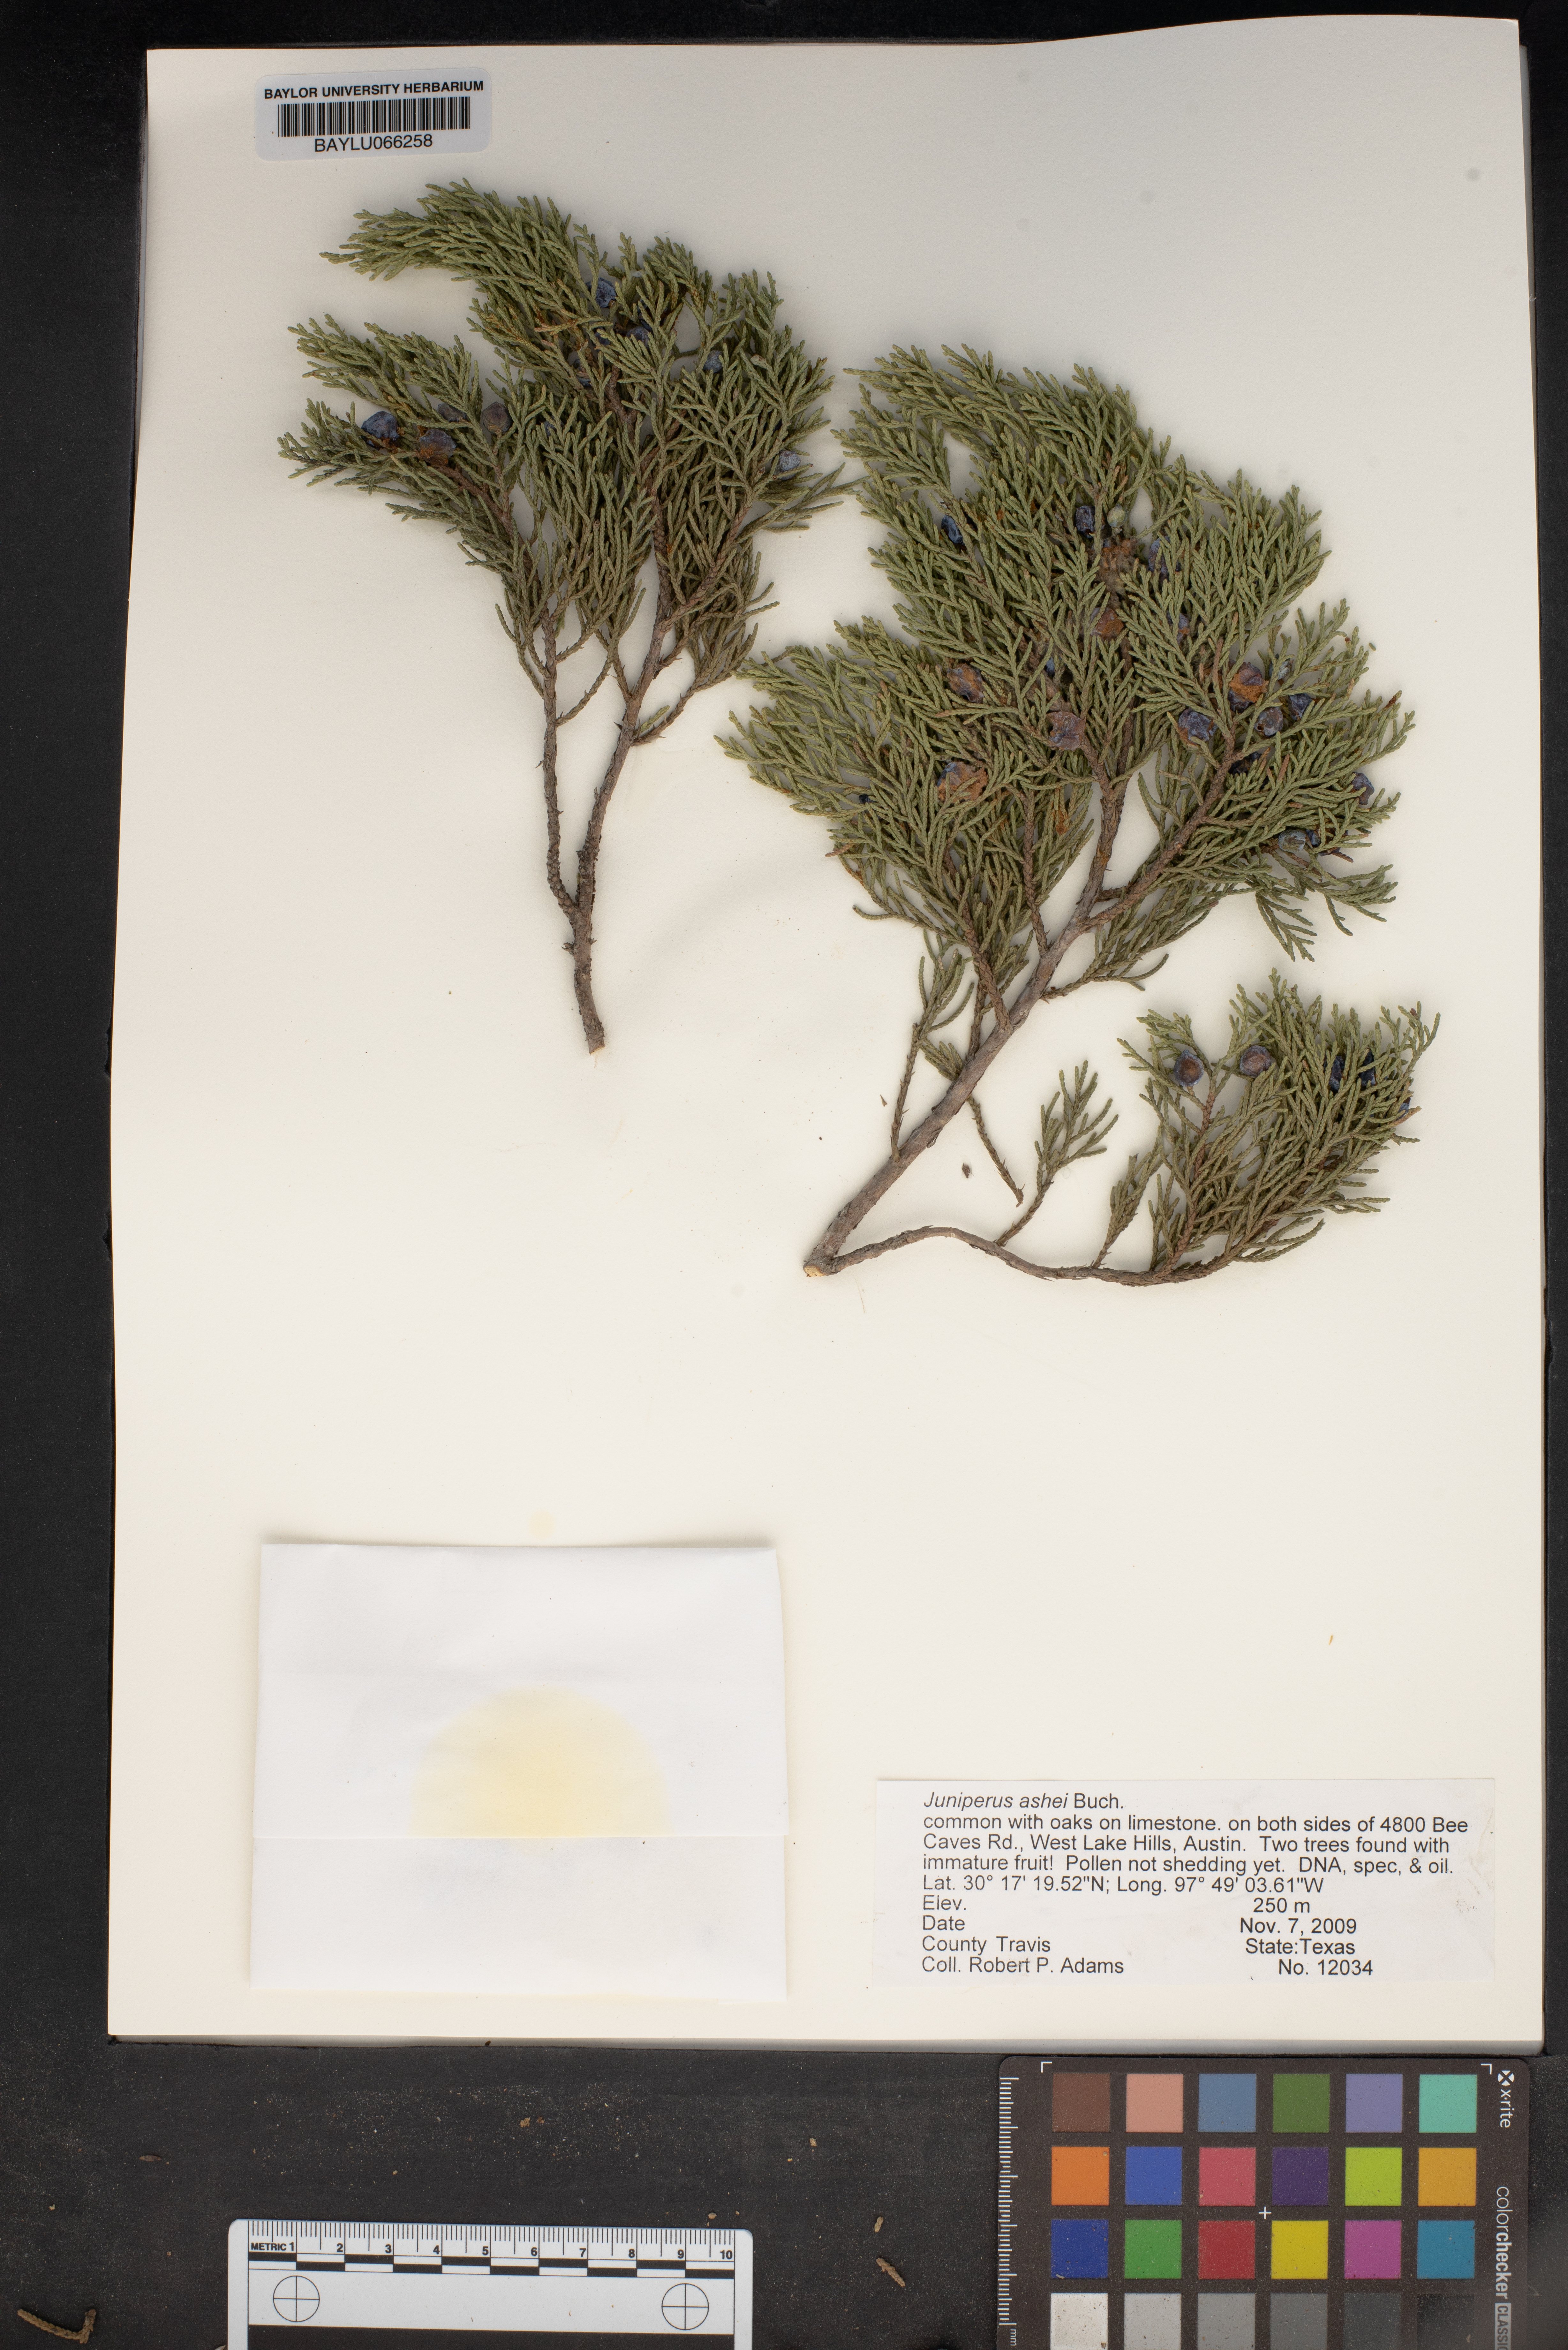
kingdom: Plantae
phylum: Tracheophyta
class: Pinopsida
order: Pinales
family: Cupressaceae
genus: Juniperus
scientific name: Juniperus ashei
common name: Mexican juniper
